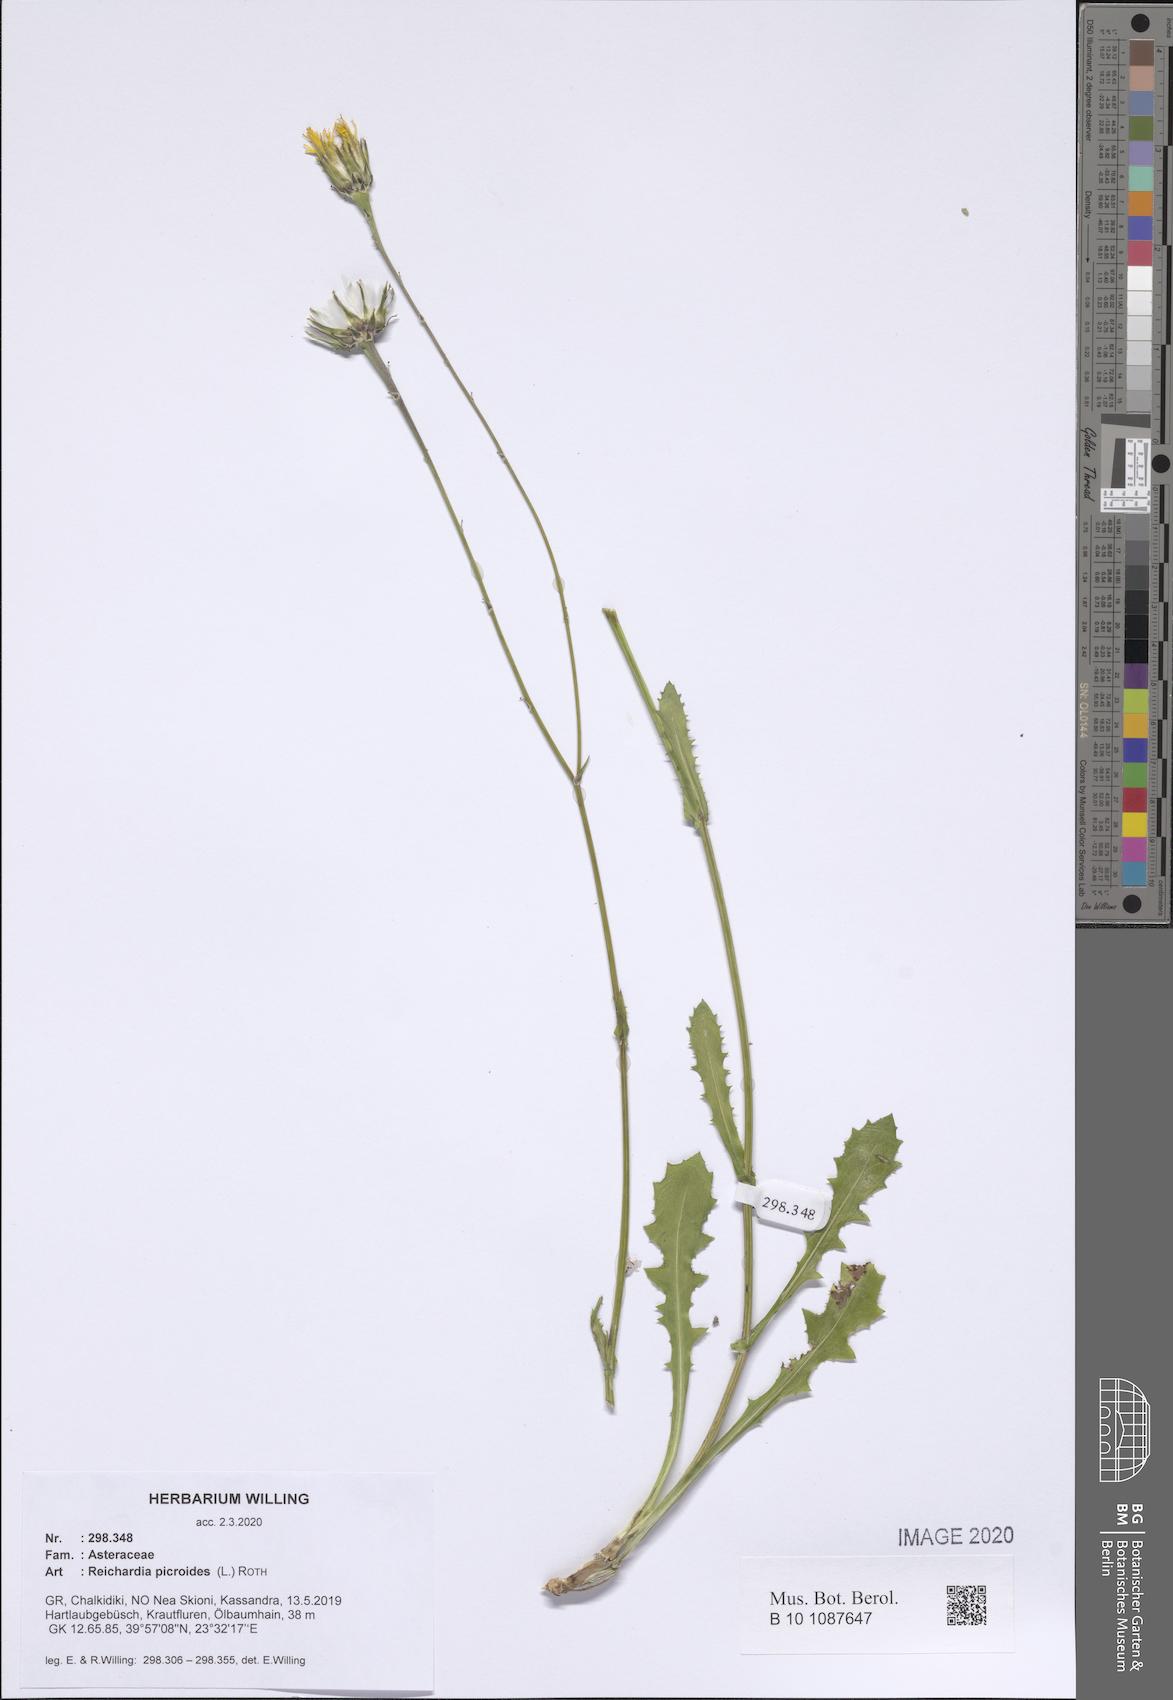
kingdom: Plantae
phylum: Tracheophyta
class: Magnoliopsida
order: Asterales
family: Asteraceae
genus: Reichardia
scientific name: Reichardia picroides
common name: Common brighteyes
